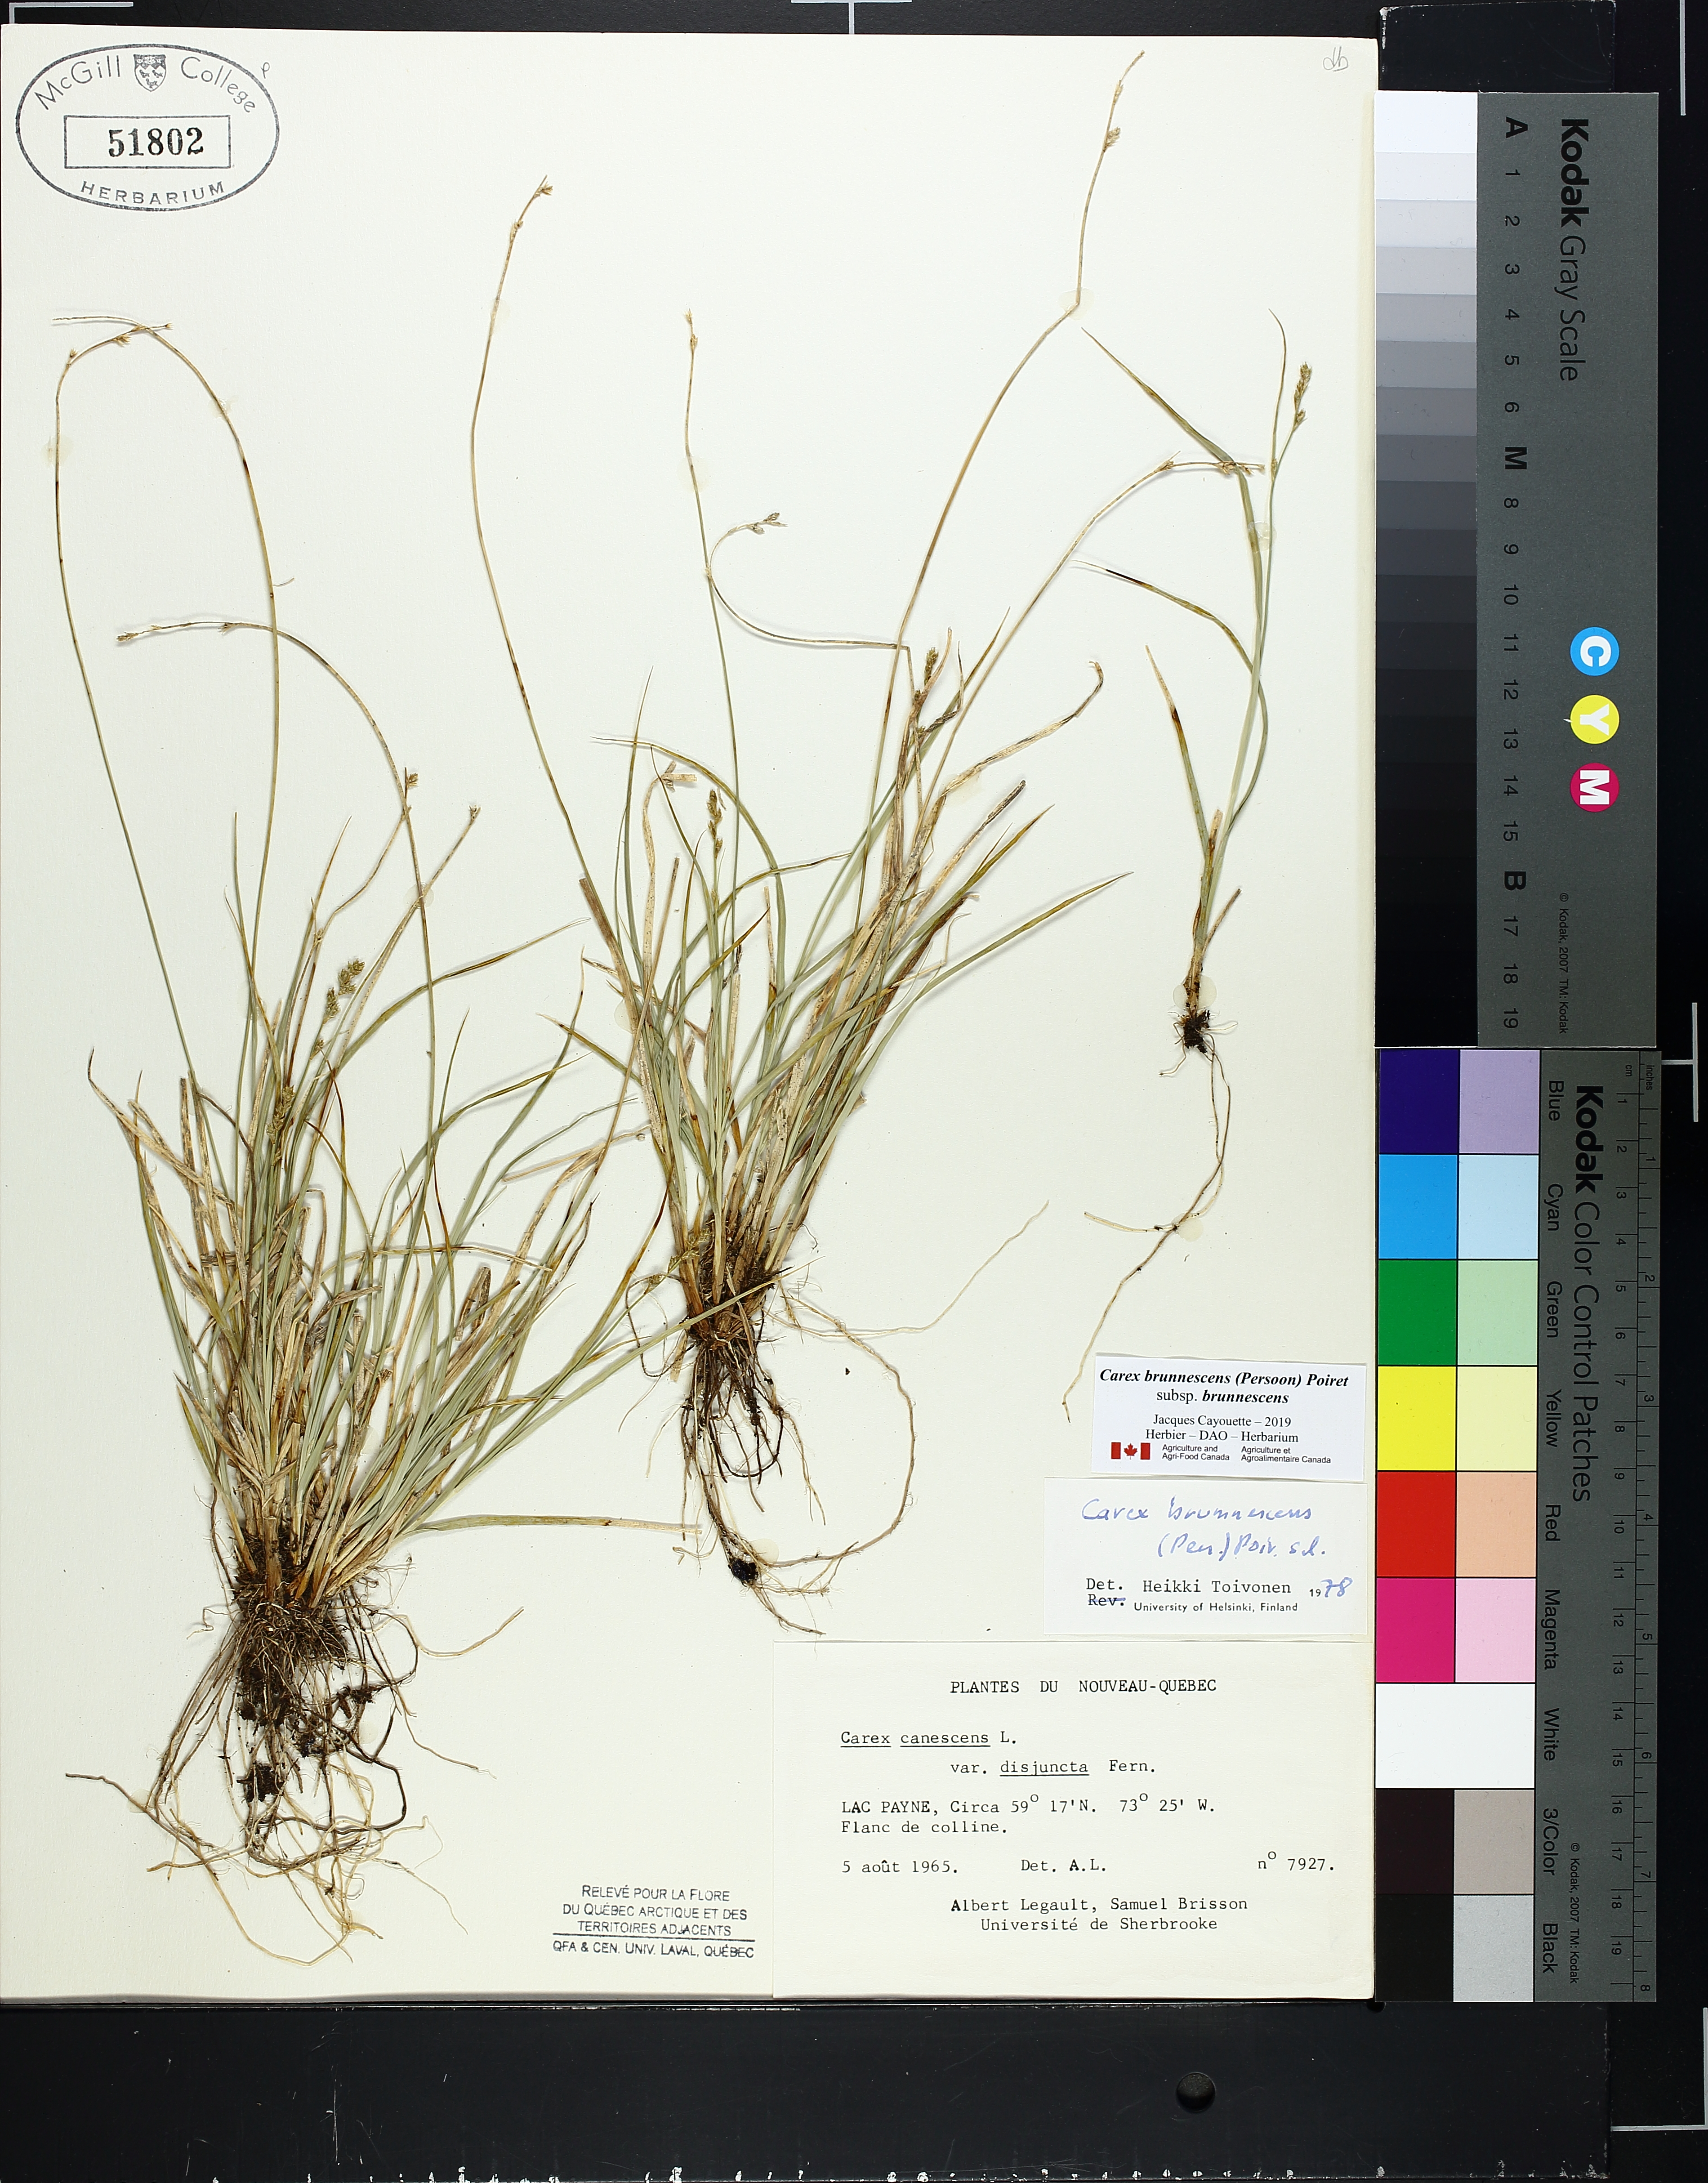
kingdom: Plantae
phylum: Tracheophyta
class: Liliopsida
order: Poales
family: Cyperaceae
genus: Carex
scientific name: Carex brunnescens
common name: Brown sedge
